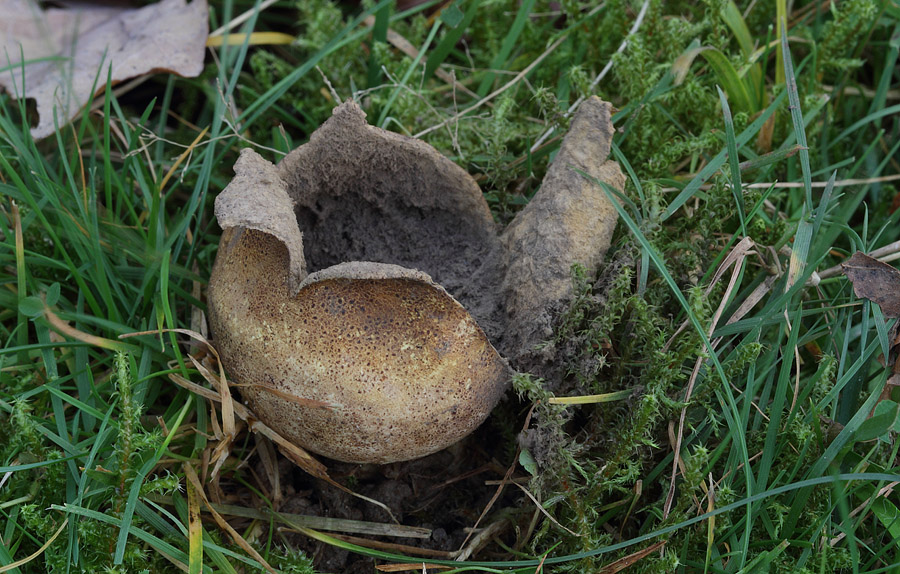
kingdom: Fungi
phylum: Basidiomycota
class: Agaricomycetes
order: Boletales
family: Sclerodermataceae
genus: Scleroderma
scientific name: Scleroderma areolatum
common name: plettet bruskbold
